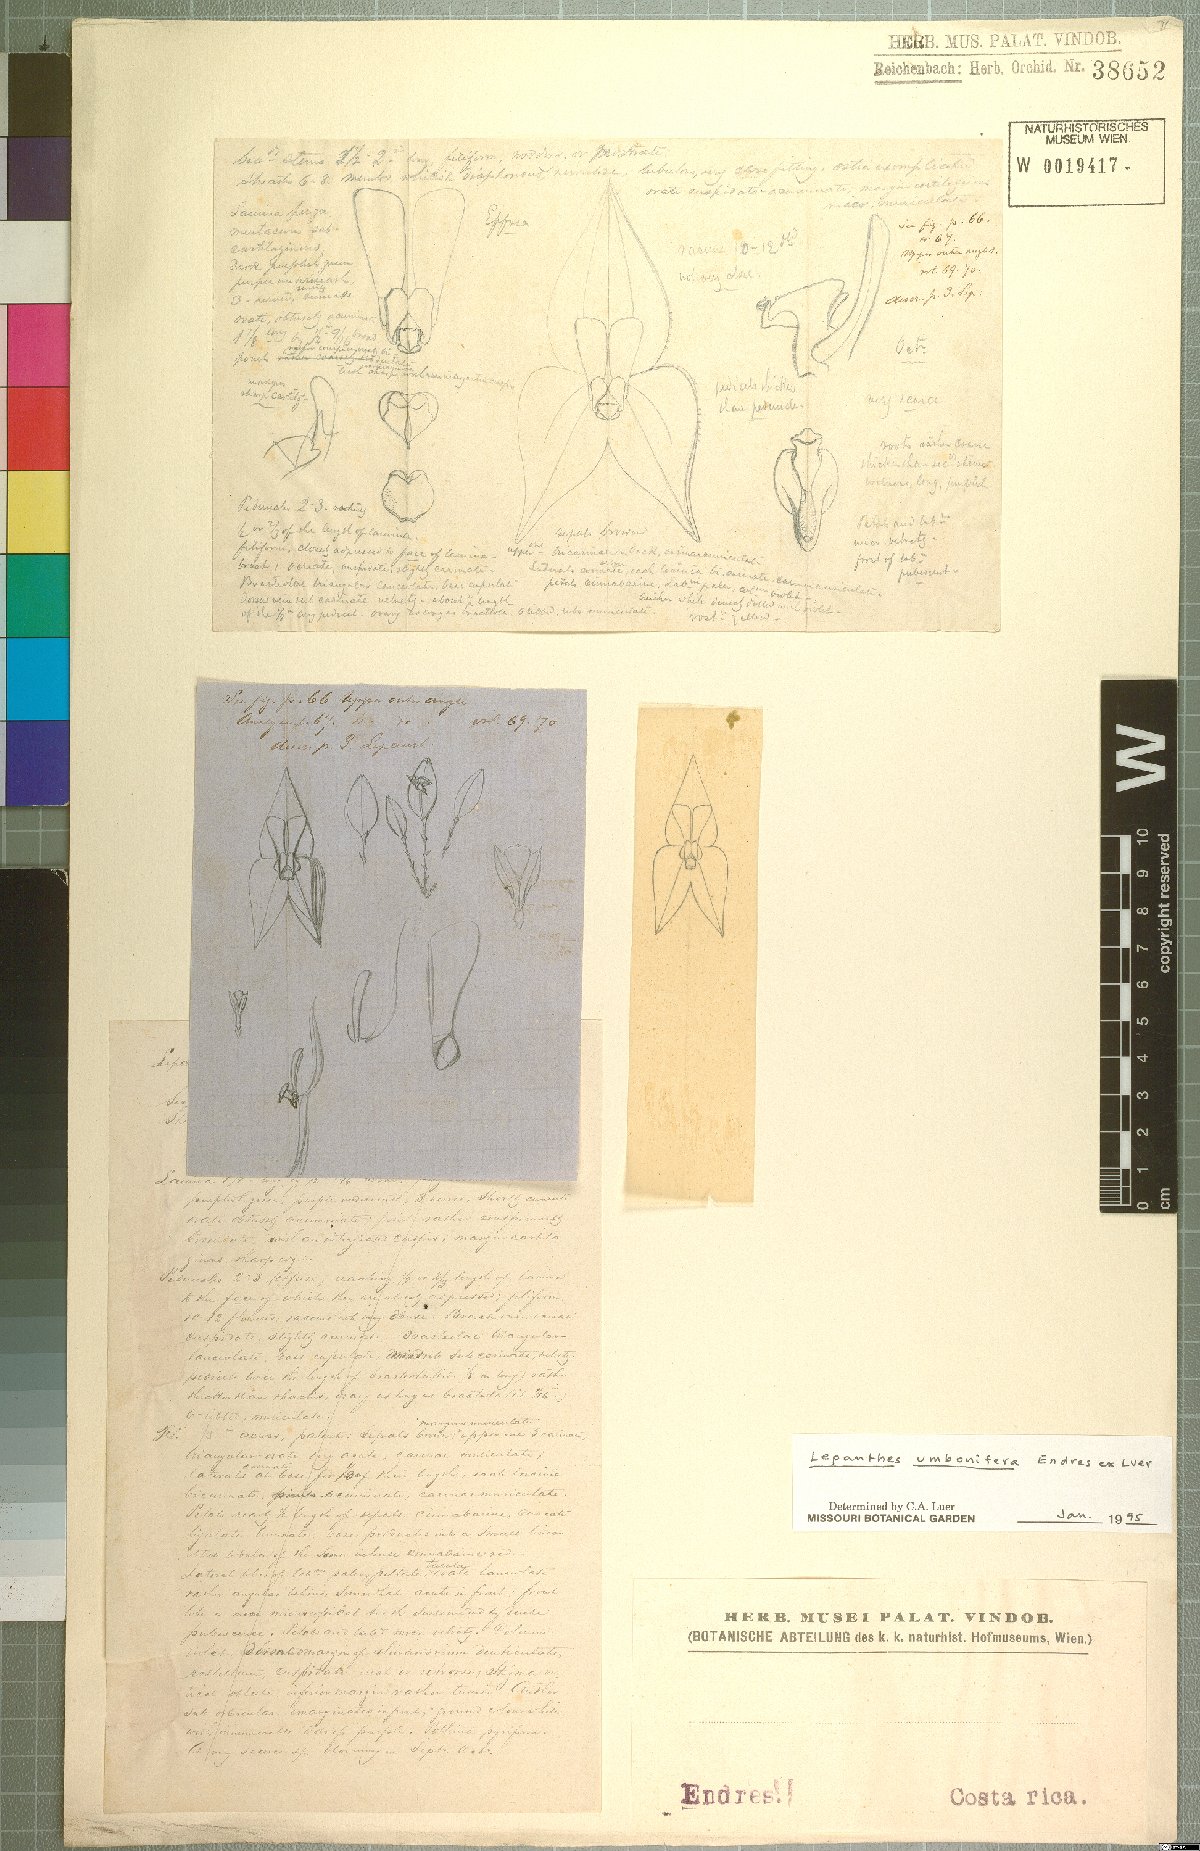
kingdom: Plantae
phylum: Tracheophyta
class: Liliopsida
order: Asparagales
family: Orchidaceae
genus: Lepanthes
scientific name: Lepanthes umbonifera
